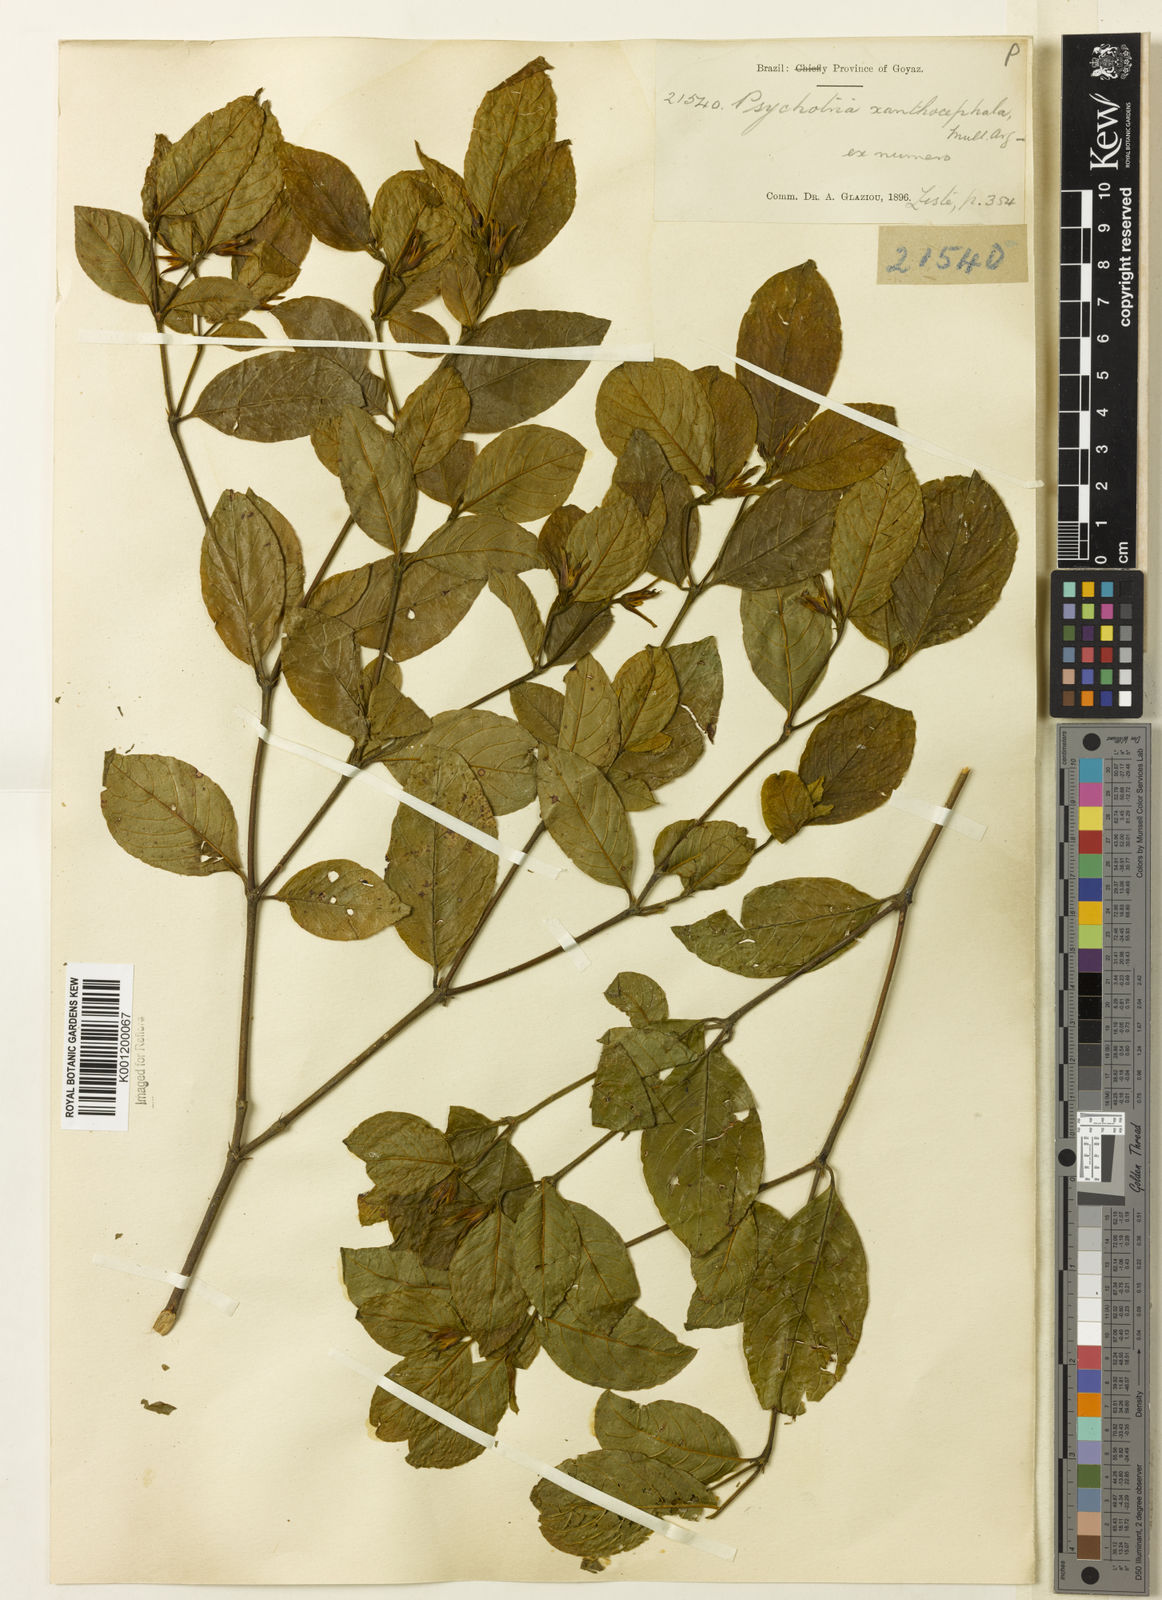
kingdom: Plantae
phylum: Tracheophyta
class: Magnoliopsida
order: Gentianales
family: Rubiaceae
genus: Psychotria
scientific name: Psychotria
